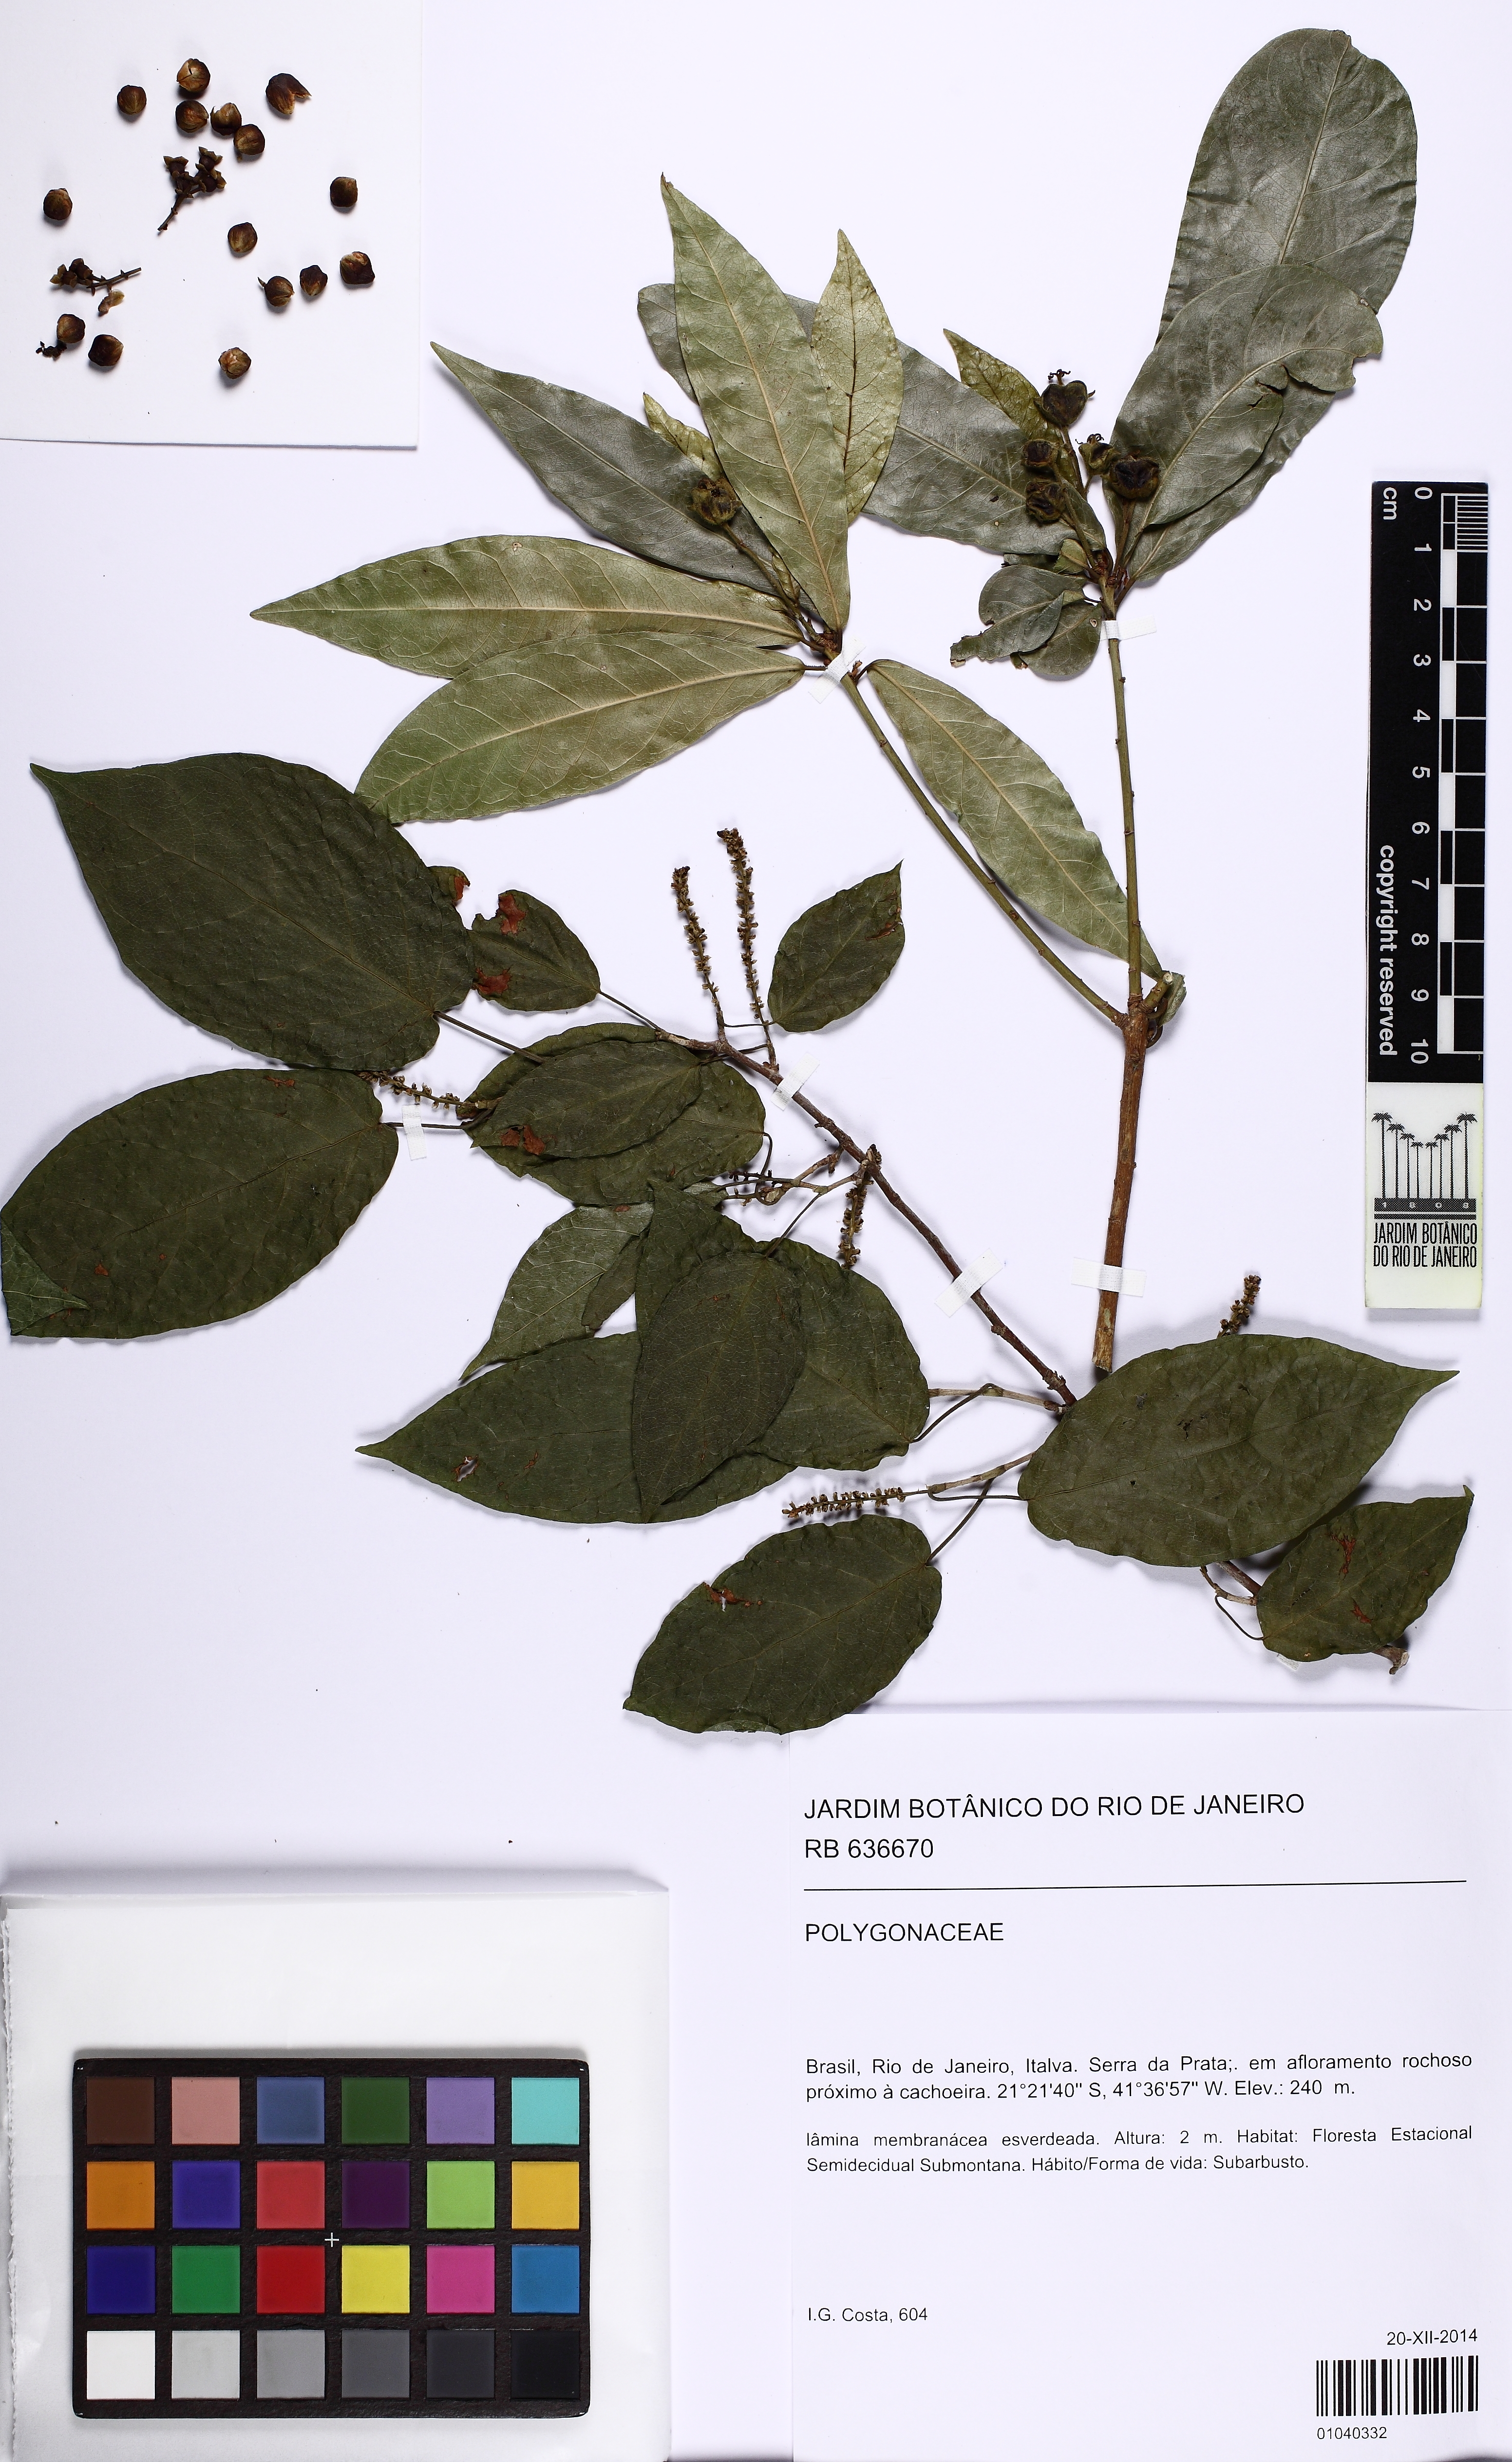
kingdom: Plantae
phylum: Tracheophyta
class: Magnoliopsida
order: Caryophyllales
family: Polygonaceae
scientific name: Polygonaceae
